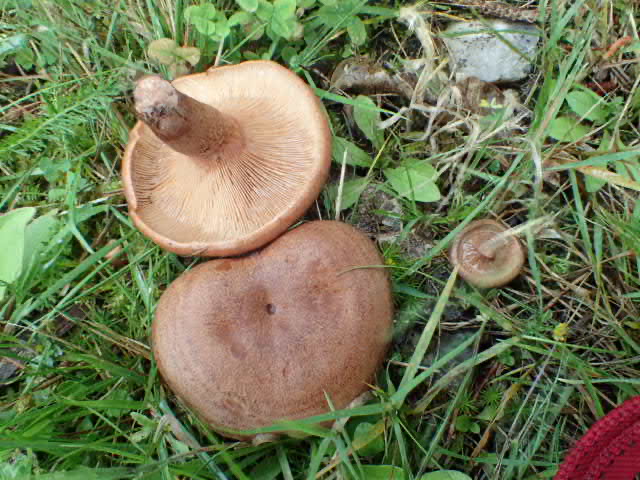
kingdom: Fungi
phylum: Basidiomycota
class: Agaricomycetes
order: Russulales
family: Russulaceae
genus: Lactarius
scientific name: Lactarius quietus
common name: ege-mælkehat
